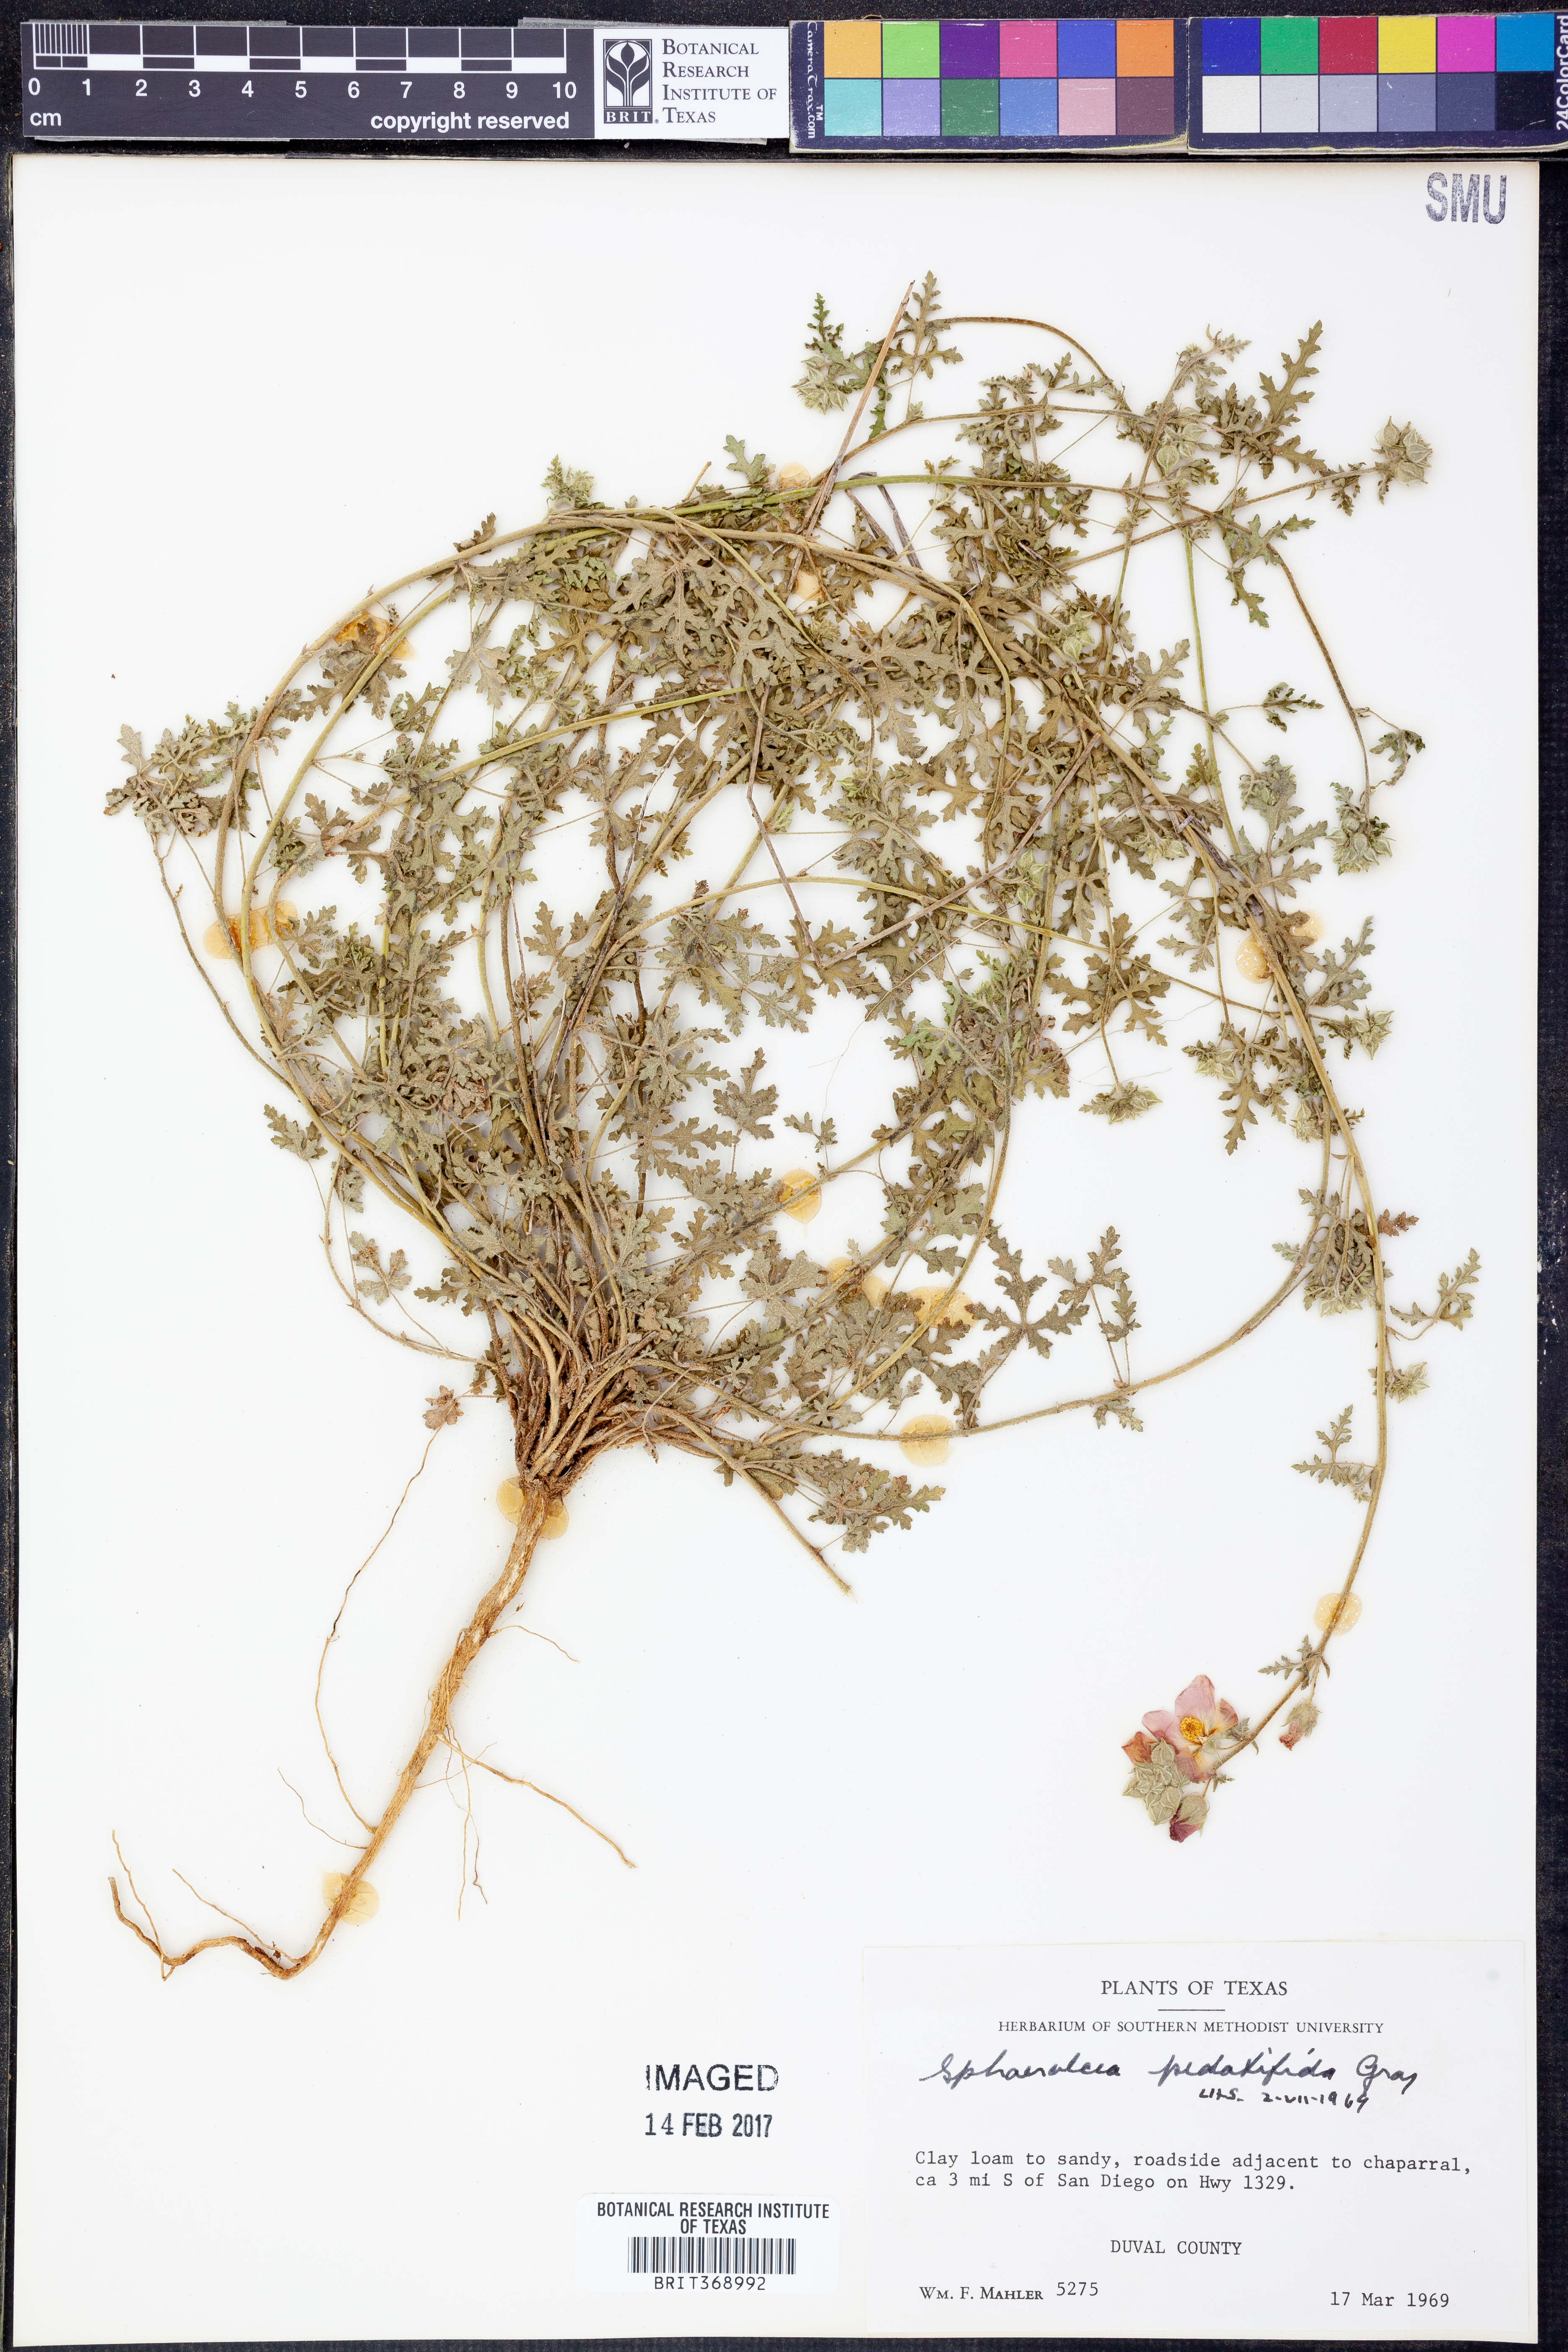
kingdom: Plantae
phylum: Tracheophyta
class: Magnoliopsida
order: Malvales
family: Malvaceae
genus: Sphaeralcea
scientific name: Sphaeralcea pedatifida
